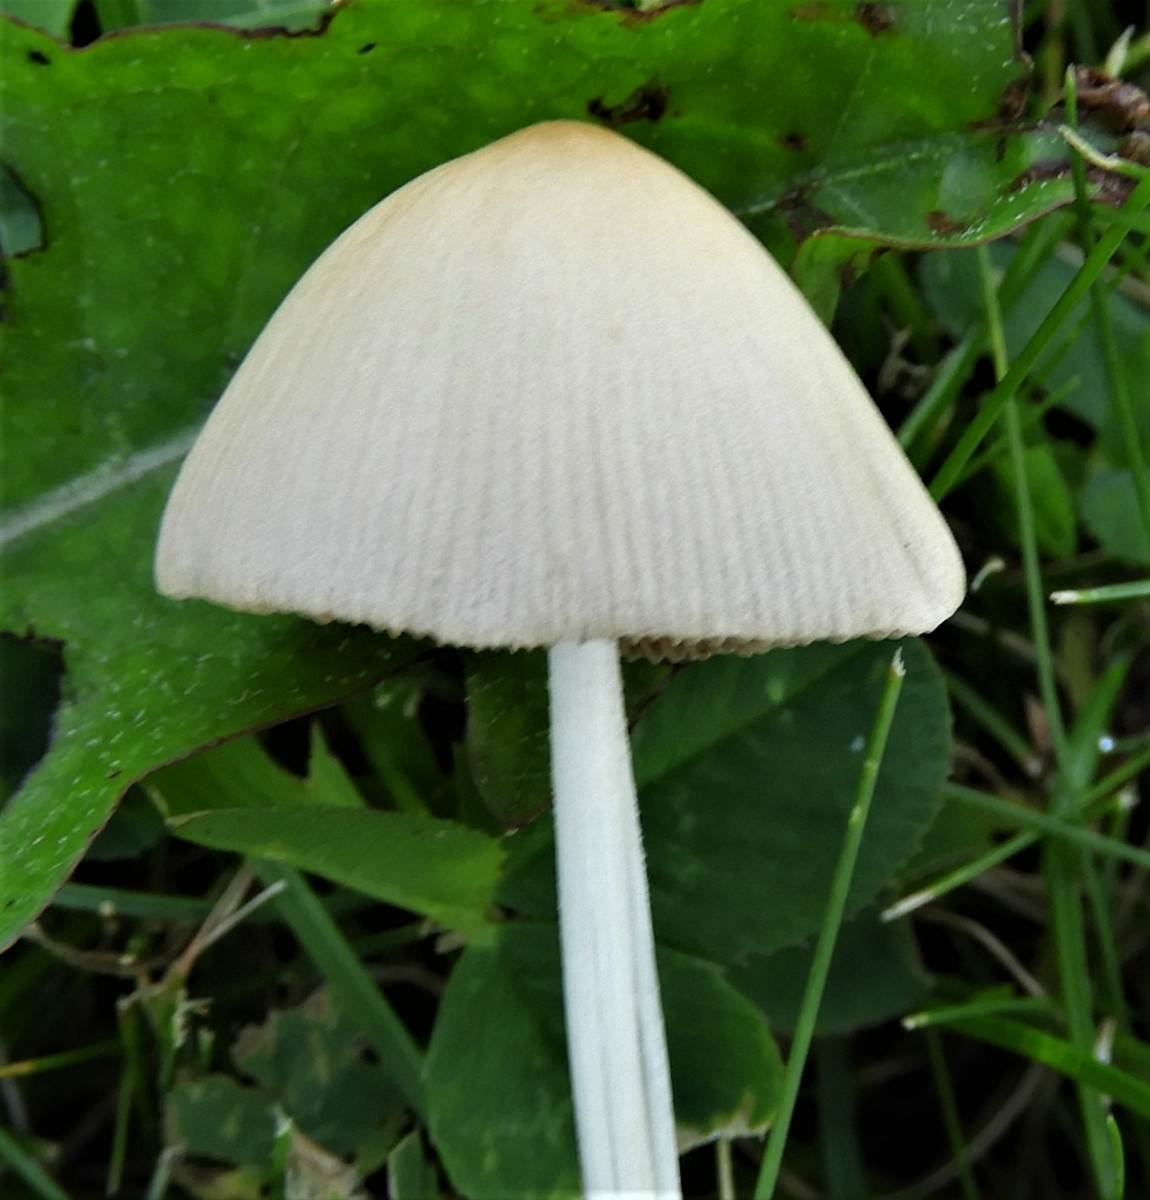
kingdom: Fungi
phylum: Basidiomycota
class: Agaricomycetes
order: Agaricales
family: Bolbitiaceae
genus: Conocybe
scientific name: Conocybe apala
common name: mælkehvid keglehat
